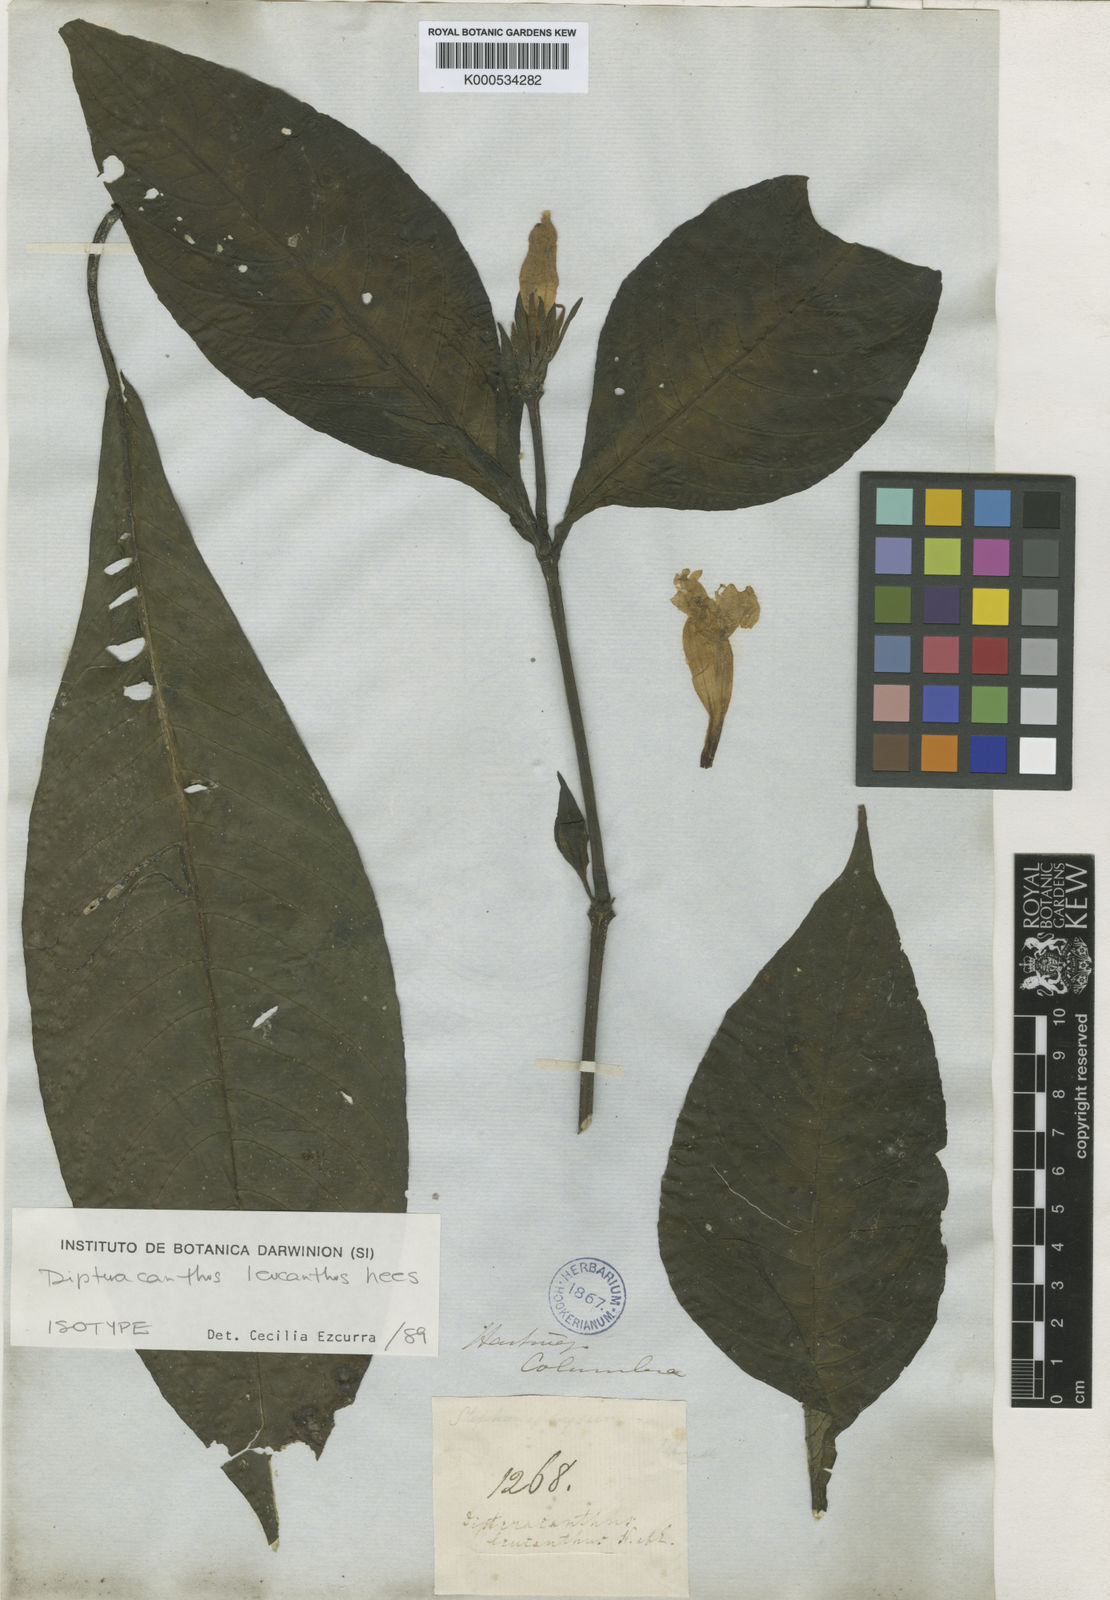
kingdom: Plantae
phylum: Tracheophyta
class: Magnoliopsida
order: Lamiales
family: Acanthaceae
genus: Ruellia
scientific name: Ruellia
